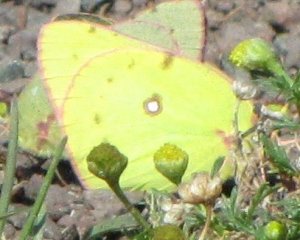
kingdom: Animalia
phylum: Arthropoda
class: Insecta
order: Lepidoptera
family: Pieridae
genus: Colias
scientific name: Colias philodice
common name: Clouded Sulphur
